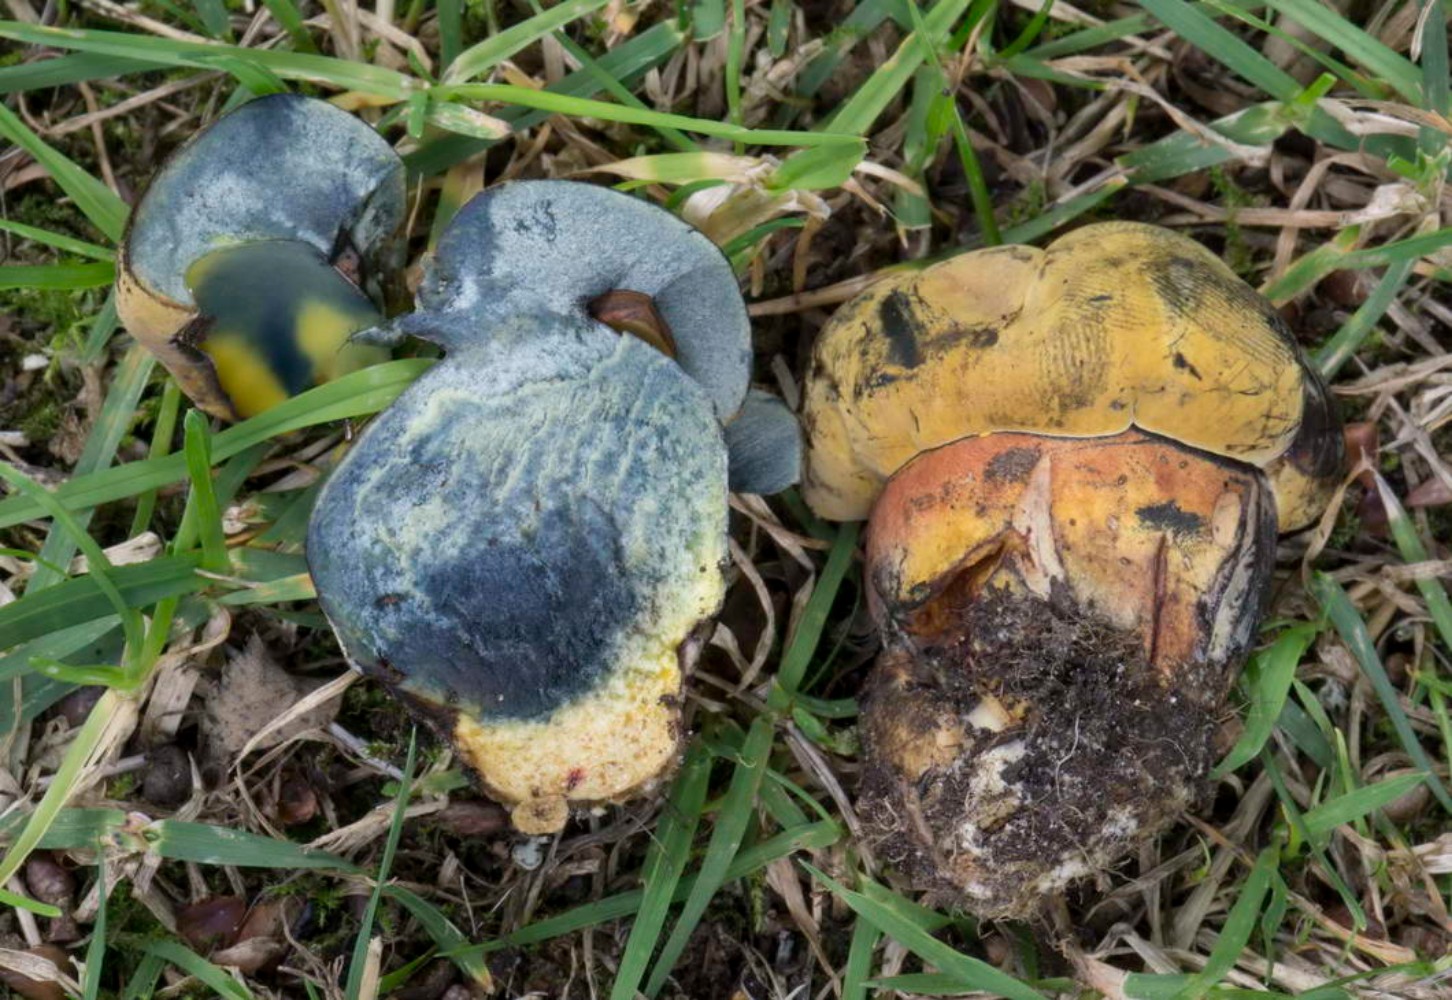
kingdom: Fungi
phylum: Basidiomycota
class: Agaricomycetes
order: Boletales
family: Boletaceae
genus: Cyanoboletus
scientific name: Cyanoboletus pulverulentus
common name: sortblånende rørhat
